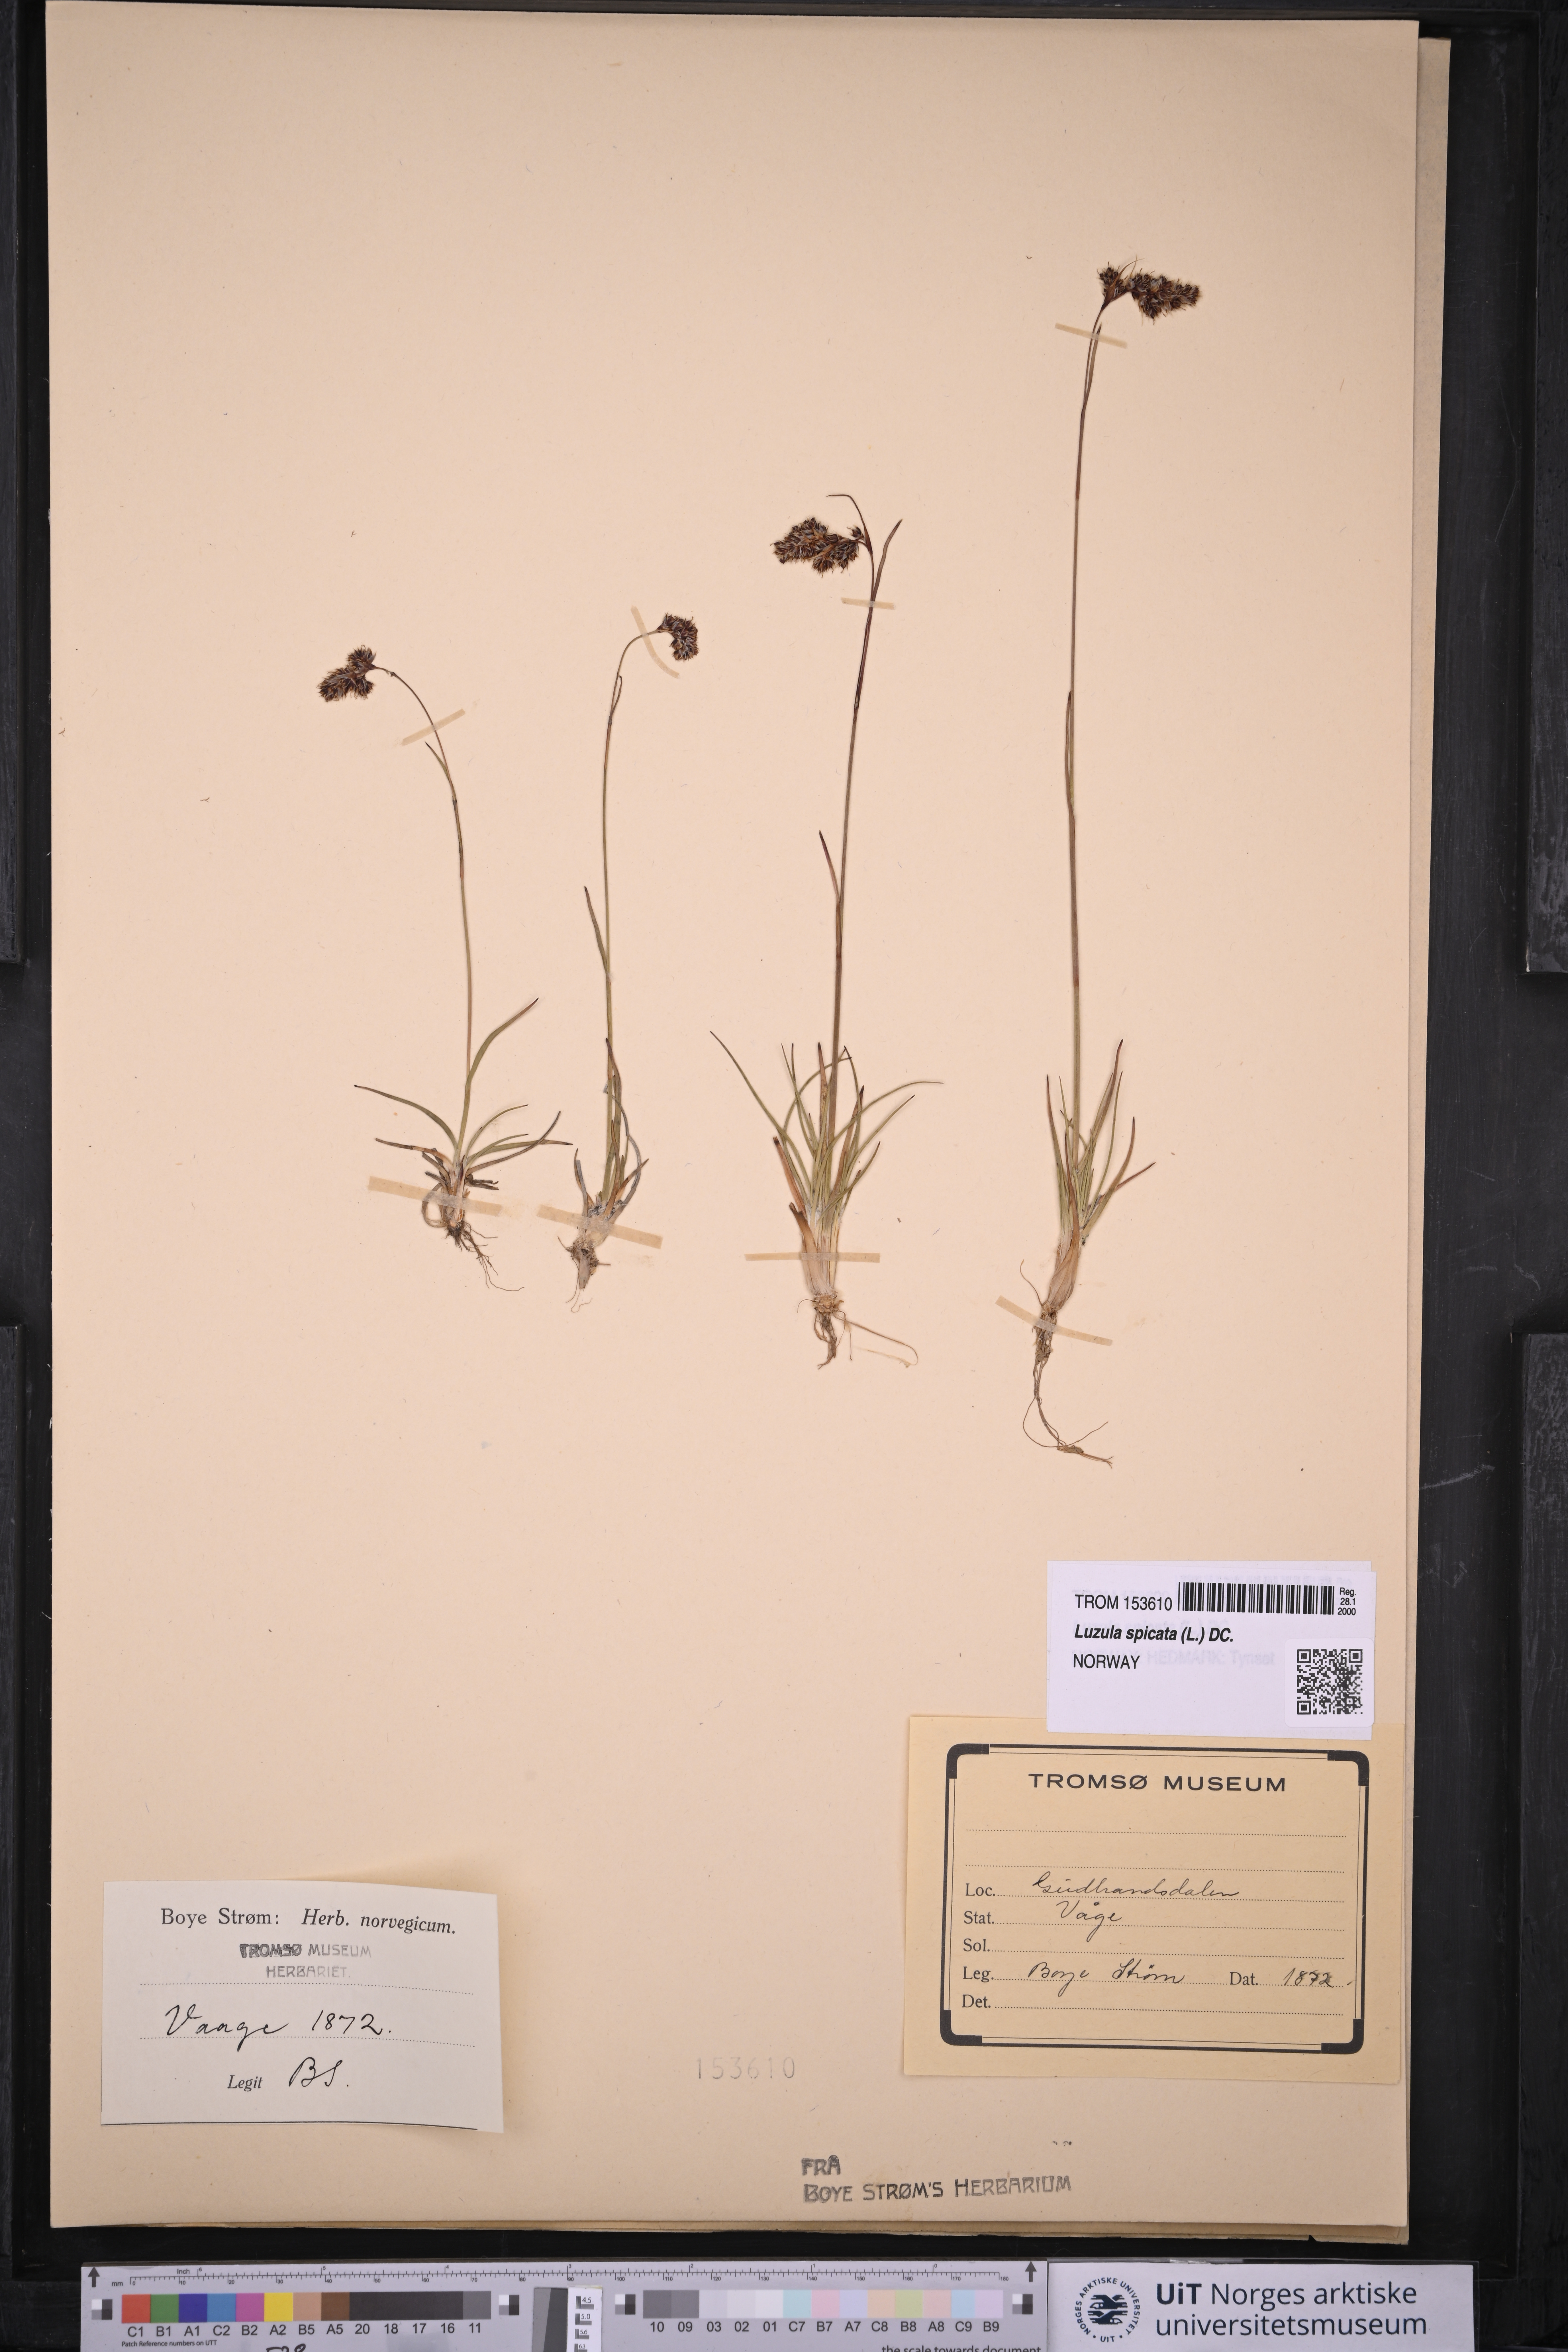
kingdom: Plantae
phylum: Tracheophyta
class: Liliopsida
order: Poales
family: Juncaceae
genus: Luzula
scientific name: Luzula spicata
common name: Spiked wood-rush
